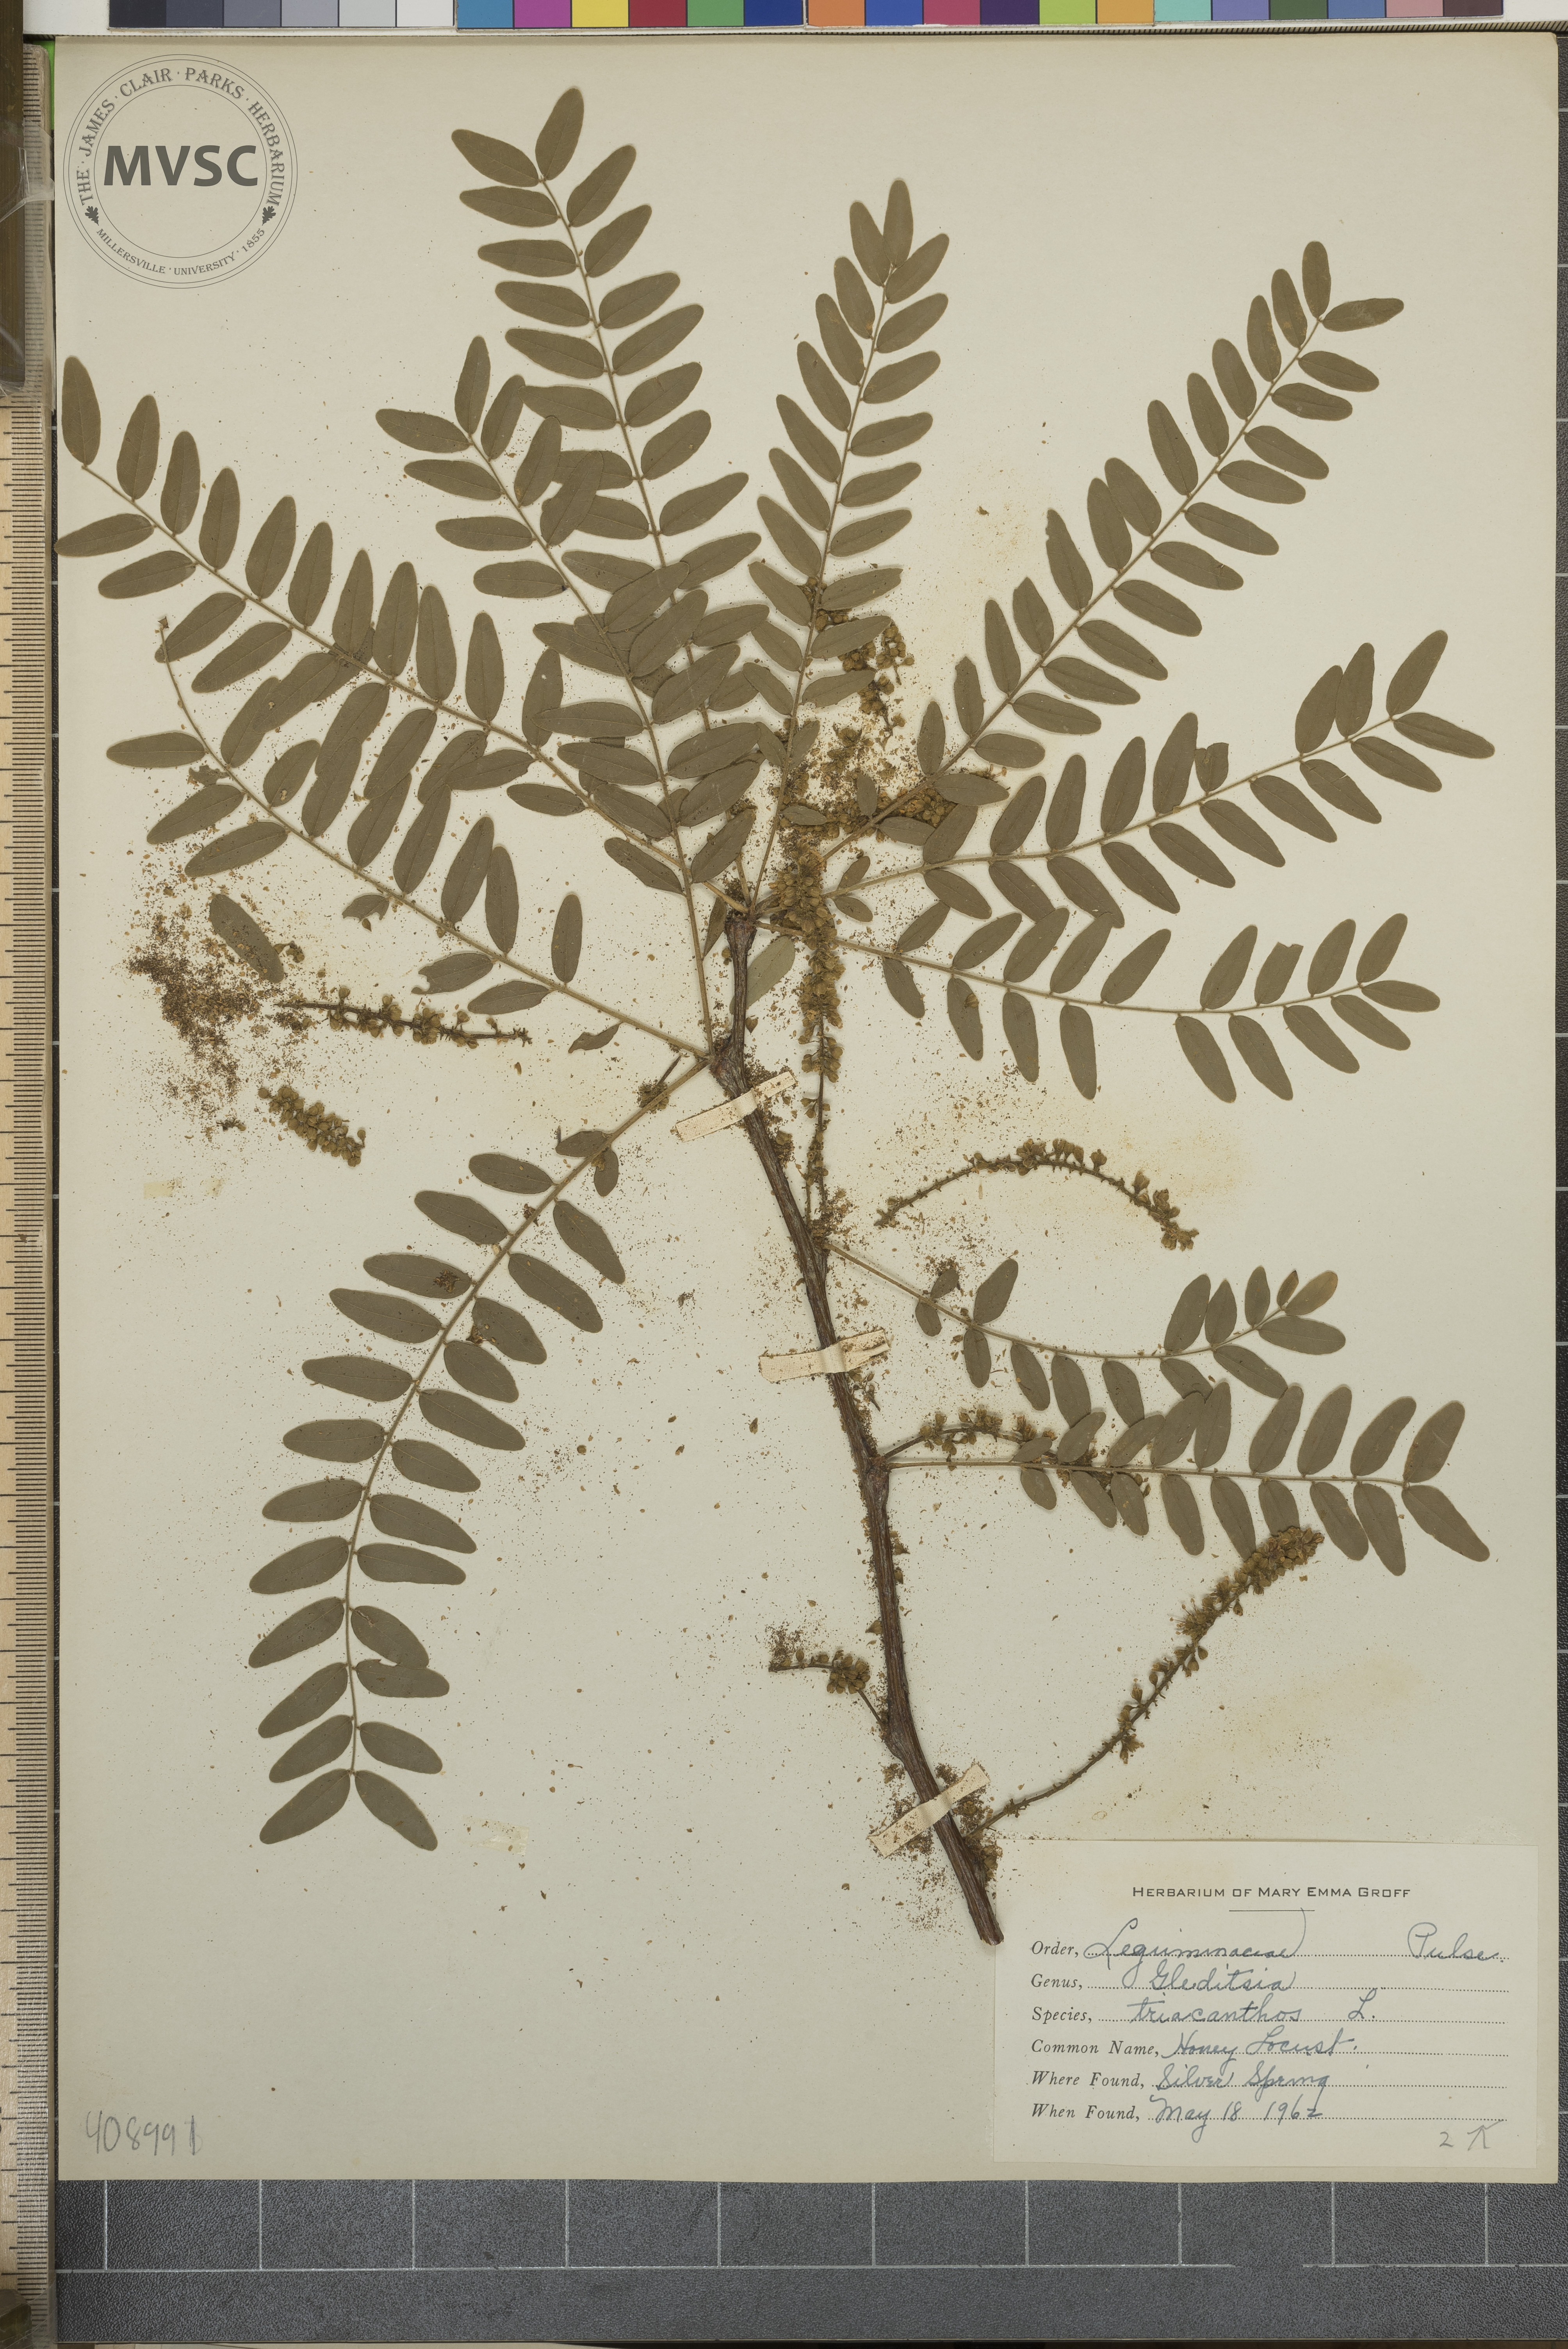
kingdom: Plantae
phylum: Tracheophyta
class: Magnoliopsida
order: Fabales
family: Fabaceae
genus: Gleditsia
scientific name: Gleditsia triacanthos
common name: Honey Locust
